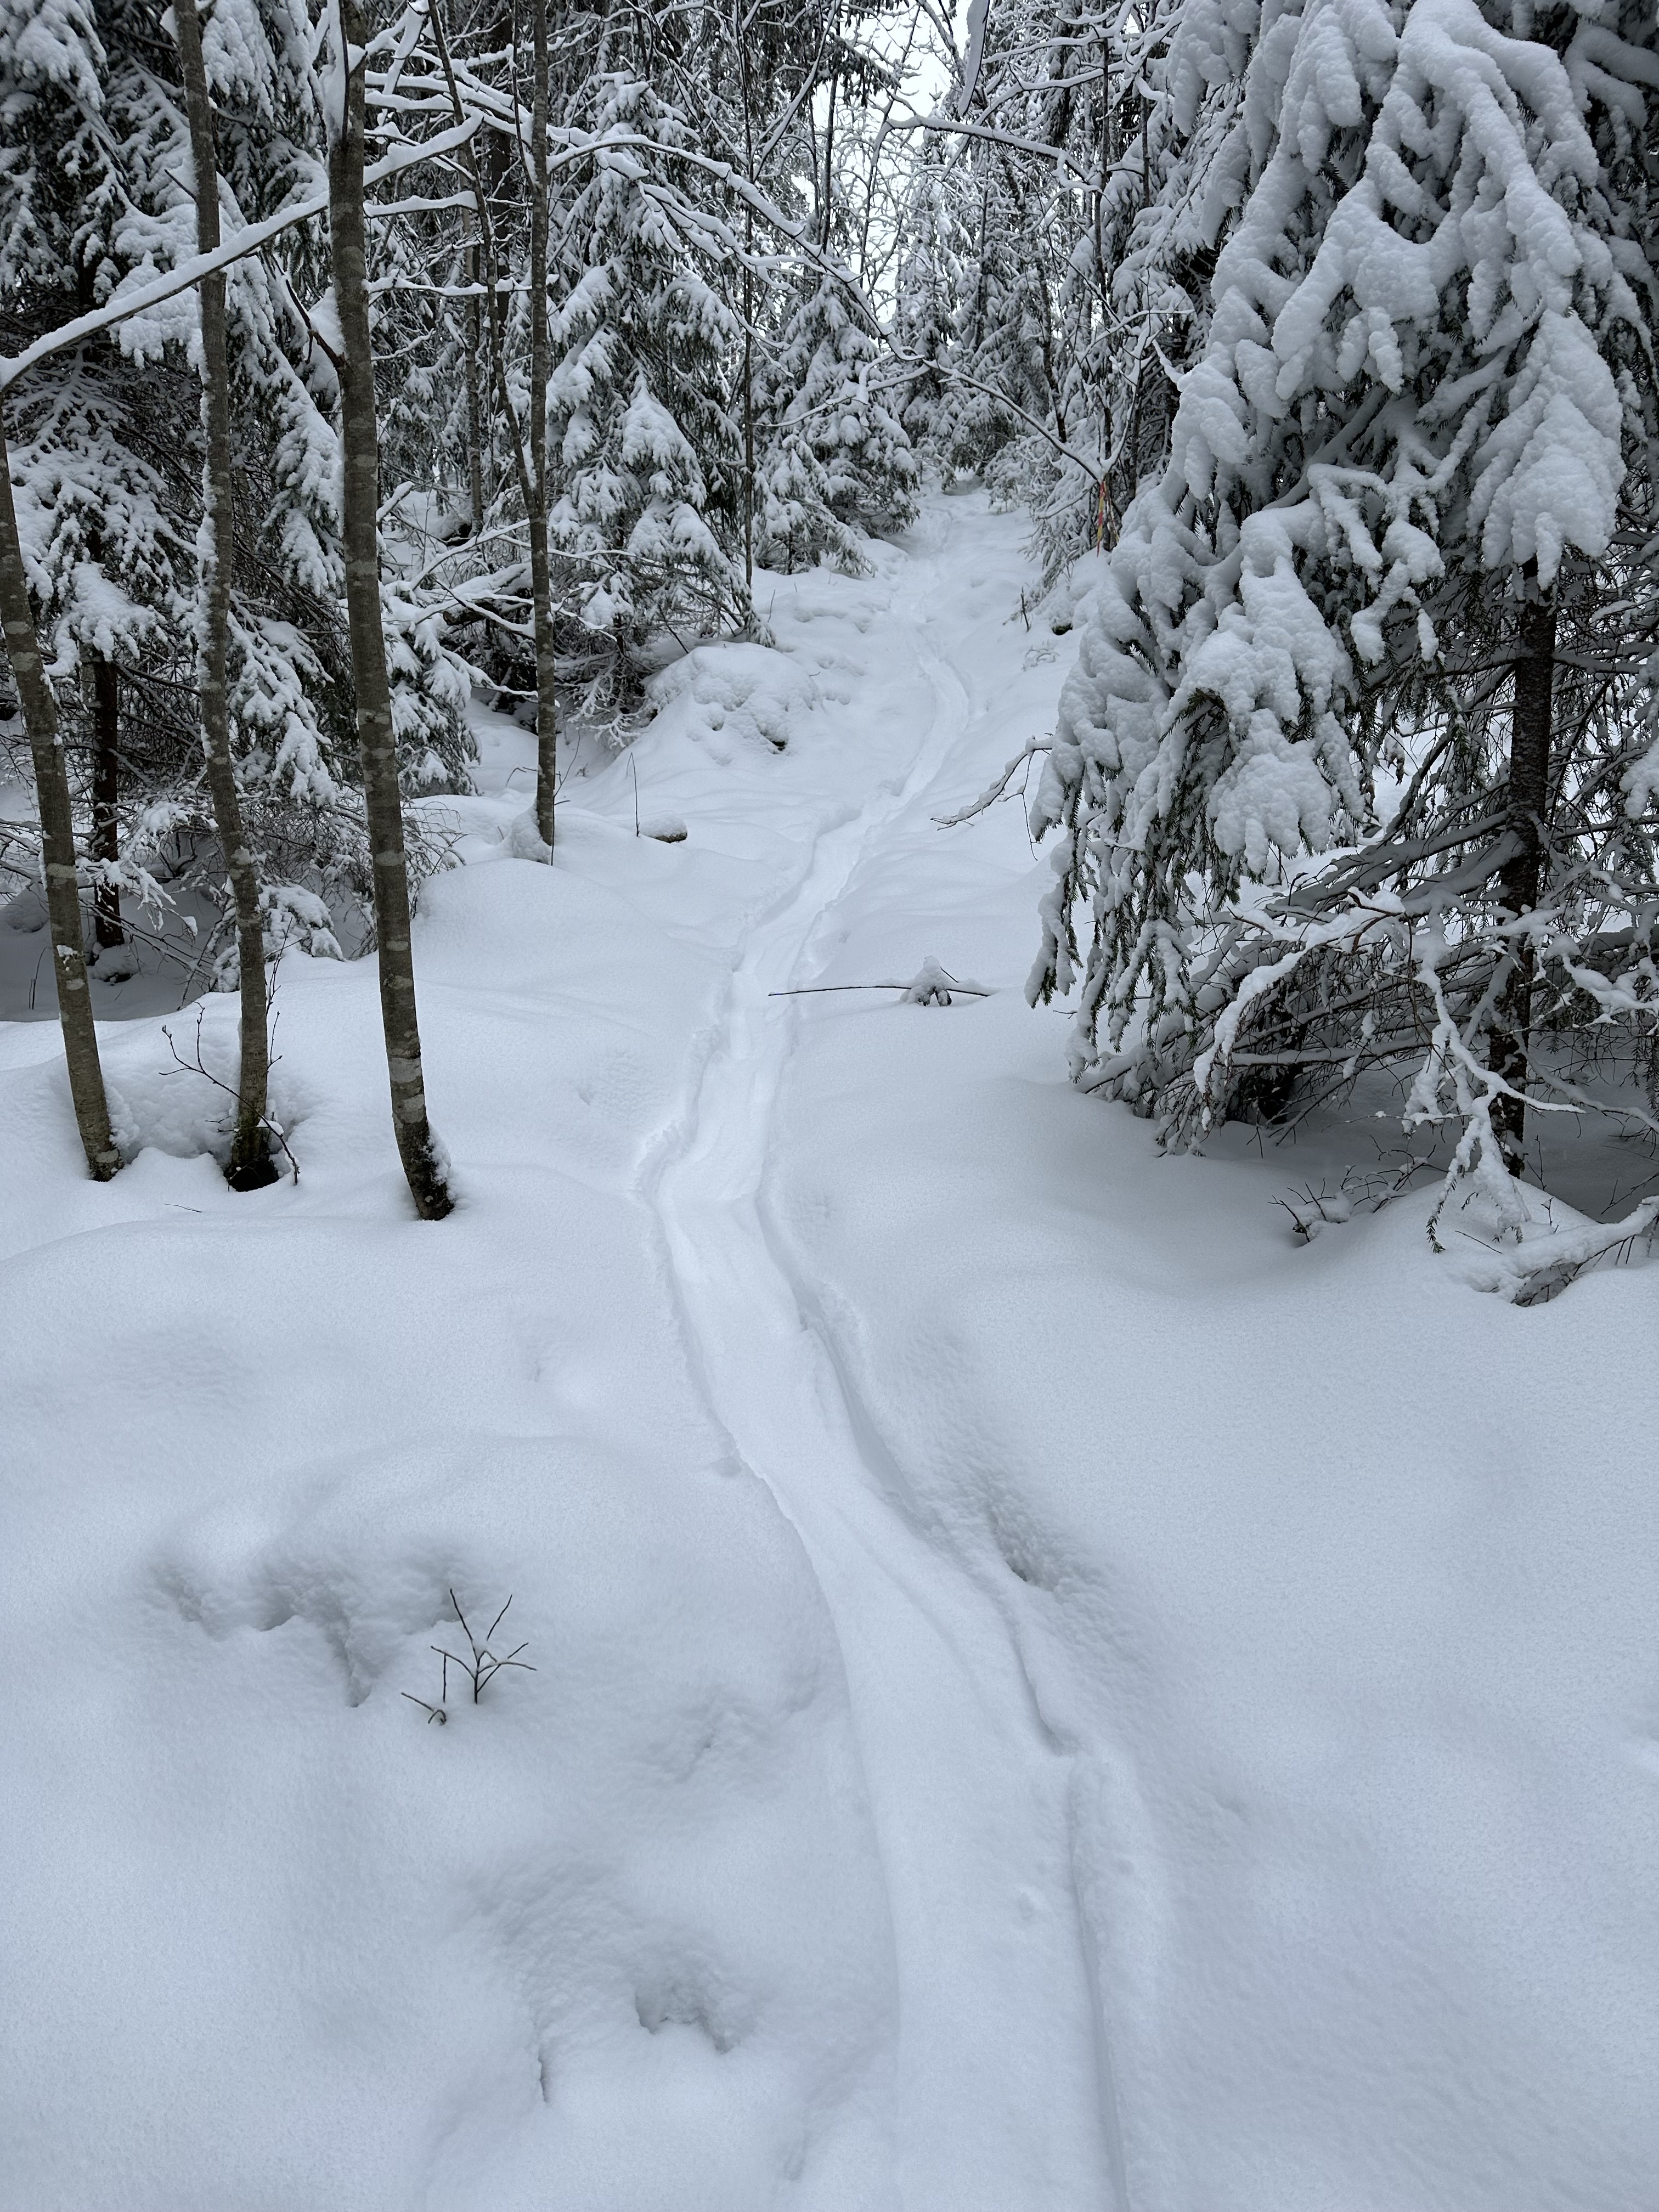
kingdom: Animalia
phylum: Chordata
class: Mammalia
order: Carnivora
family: Mustelidae
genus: Lutra
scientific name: Lutra lutra
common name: European otter
